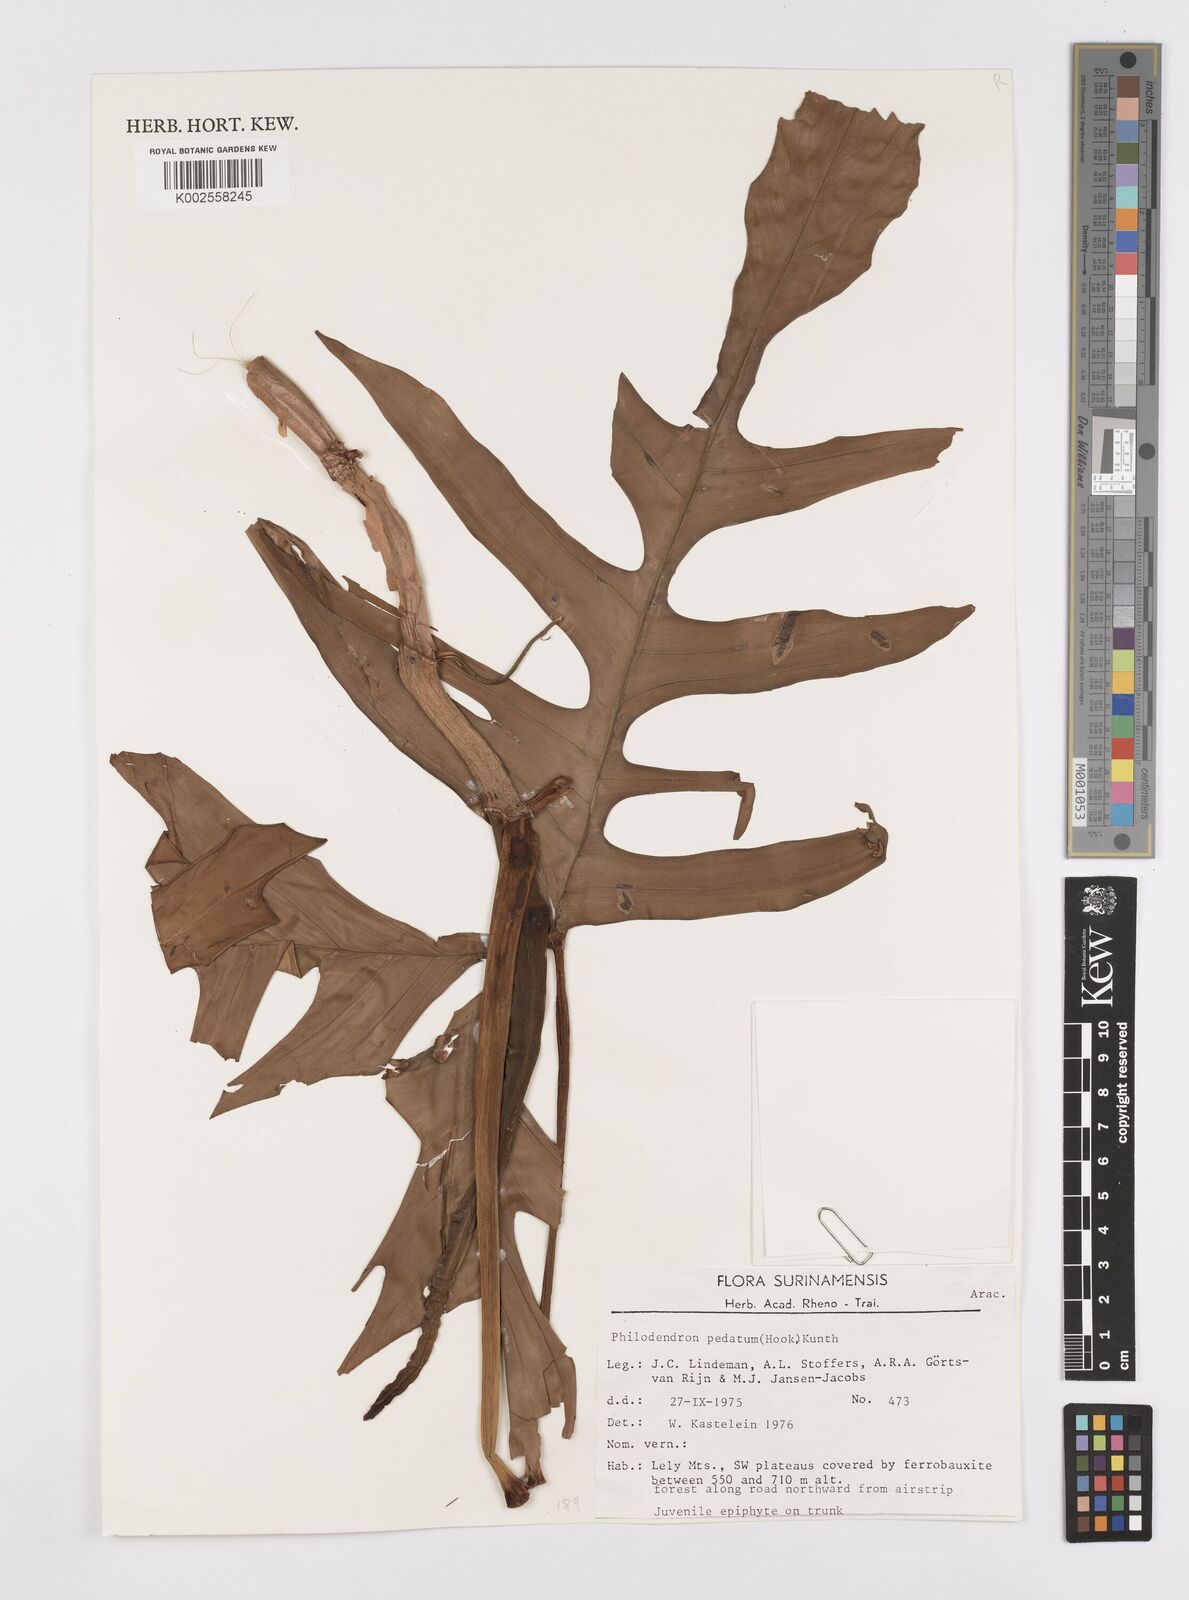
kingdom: Plantae
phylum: Tracheophyta
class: Liliopsida
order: Alismatales
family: Araceae
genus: Philodendron
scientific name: Philodendron pedatum
